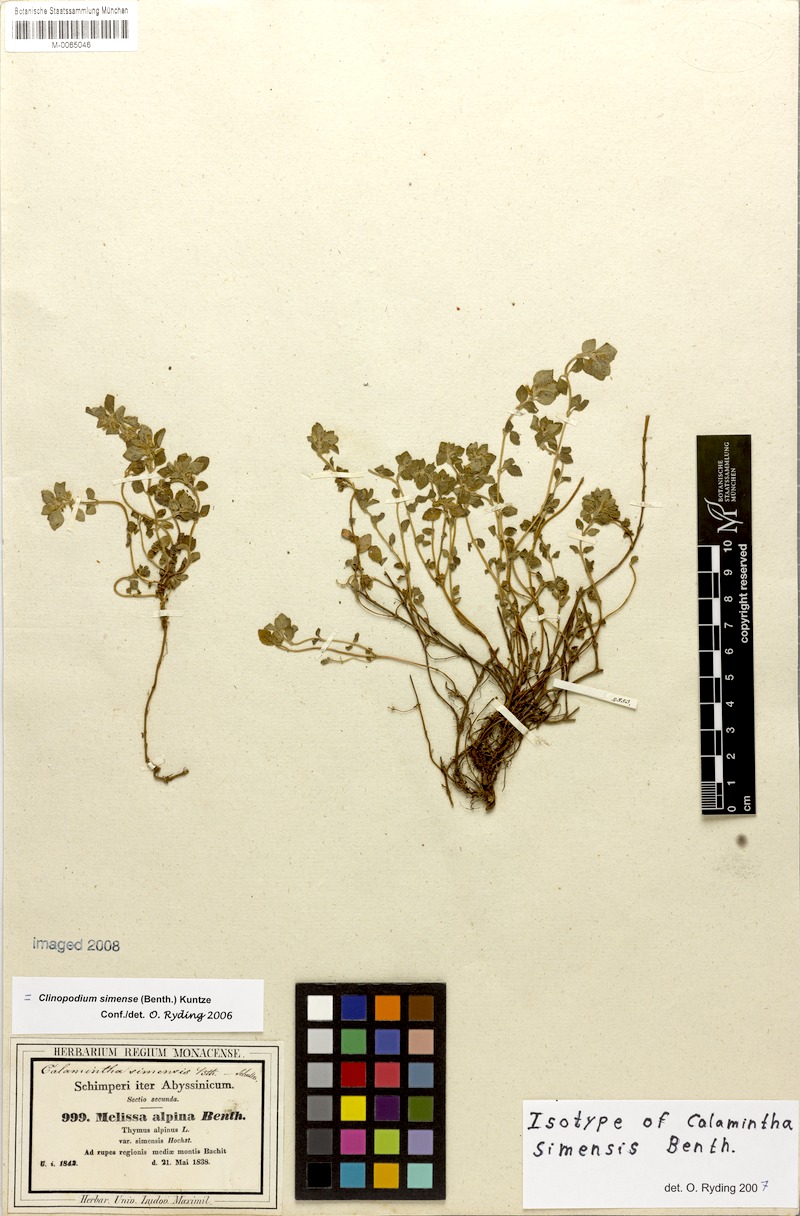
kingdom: Plantae
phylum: Tracheophyta
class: Magnoliopsida
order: Lamiales
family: Lamiaceae
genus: Clinopodium
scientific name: Clinopodium simense
